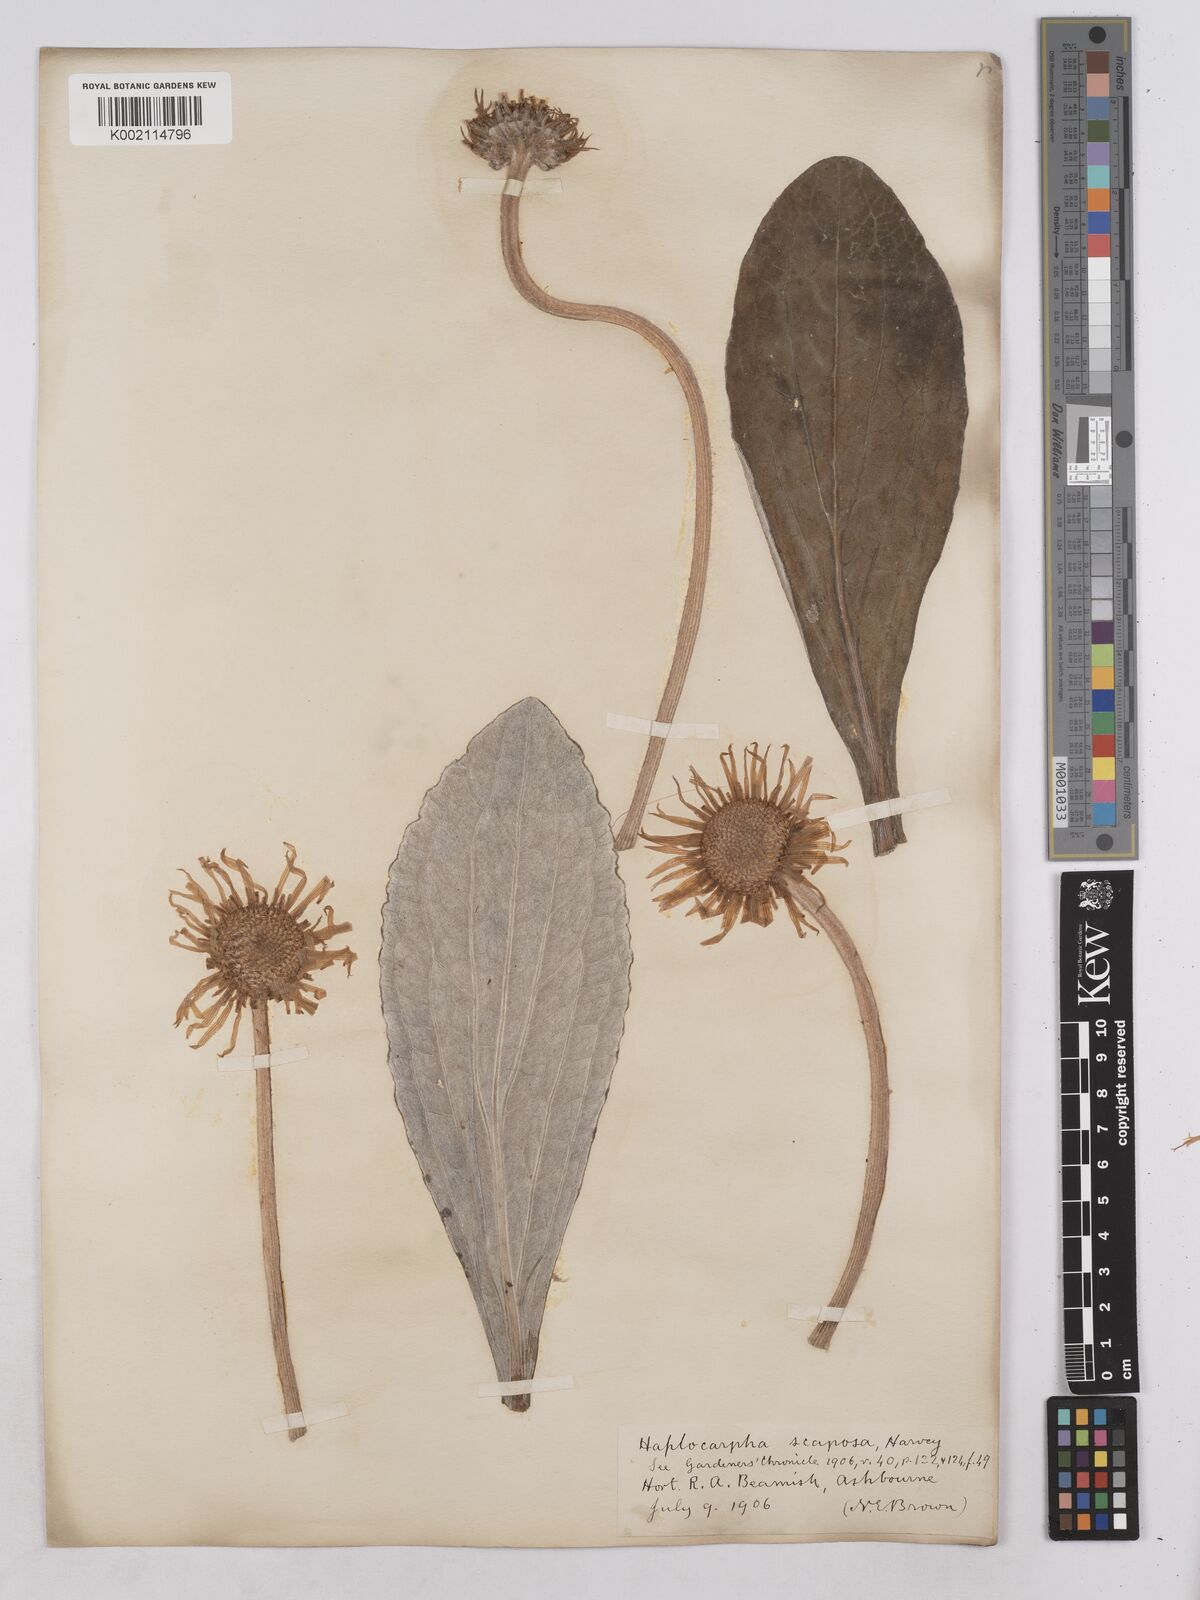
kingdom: Plantae
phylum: Tracheophyta
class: Magnoliopsida
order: Asterales
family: Asteraceae
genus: Haplocarpha
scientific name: Haplocarpha scaposa
